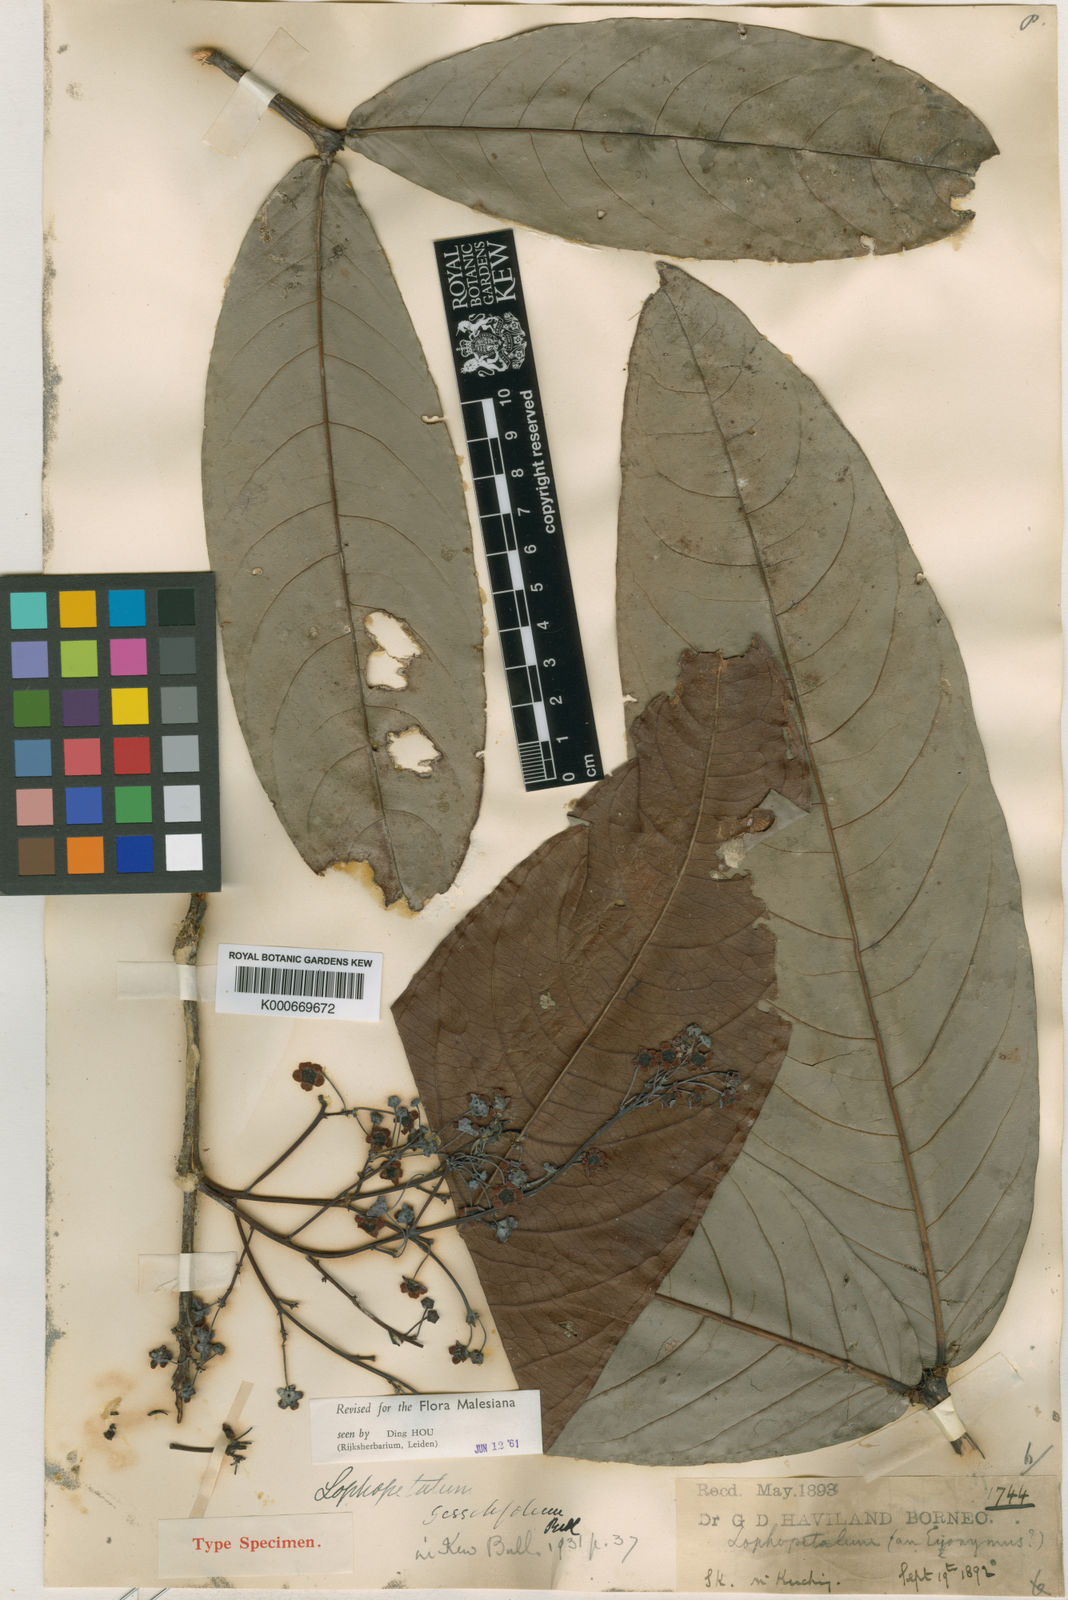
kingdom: Plantae
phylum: Tracheophyta
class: Magnoliopsida
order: Celastrales
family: Celastraceae
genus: Lophopetalum
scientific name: Lophopetalum sessilifolium
